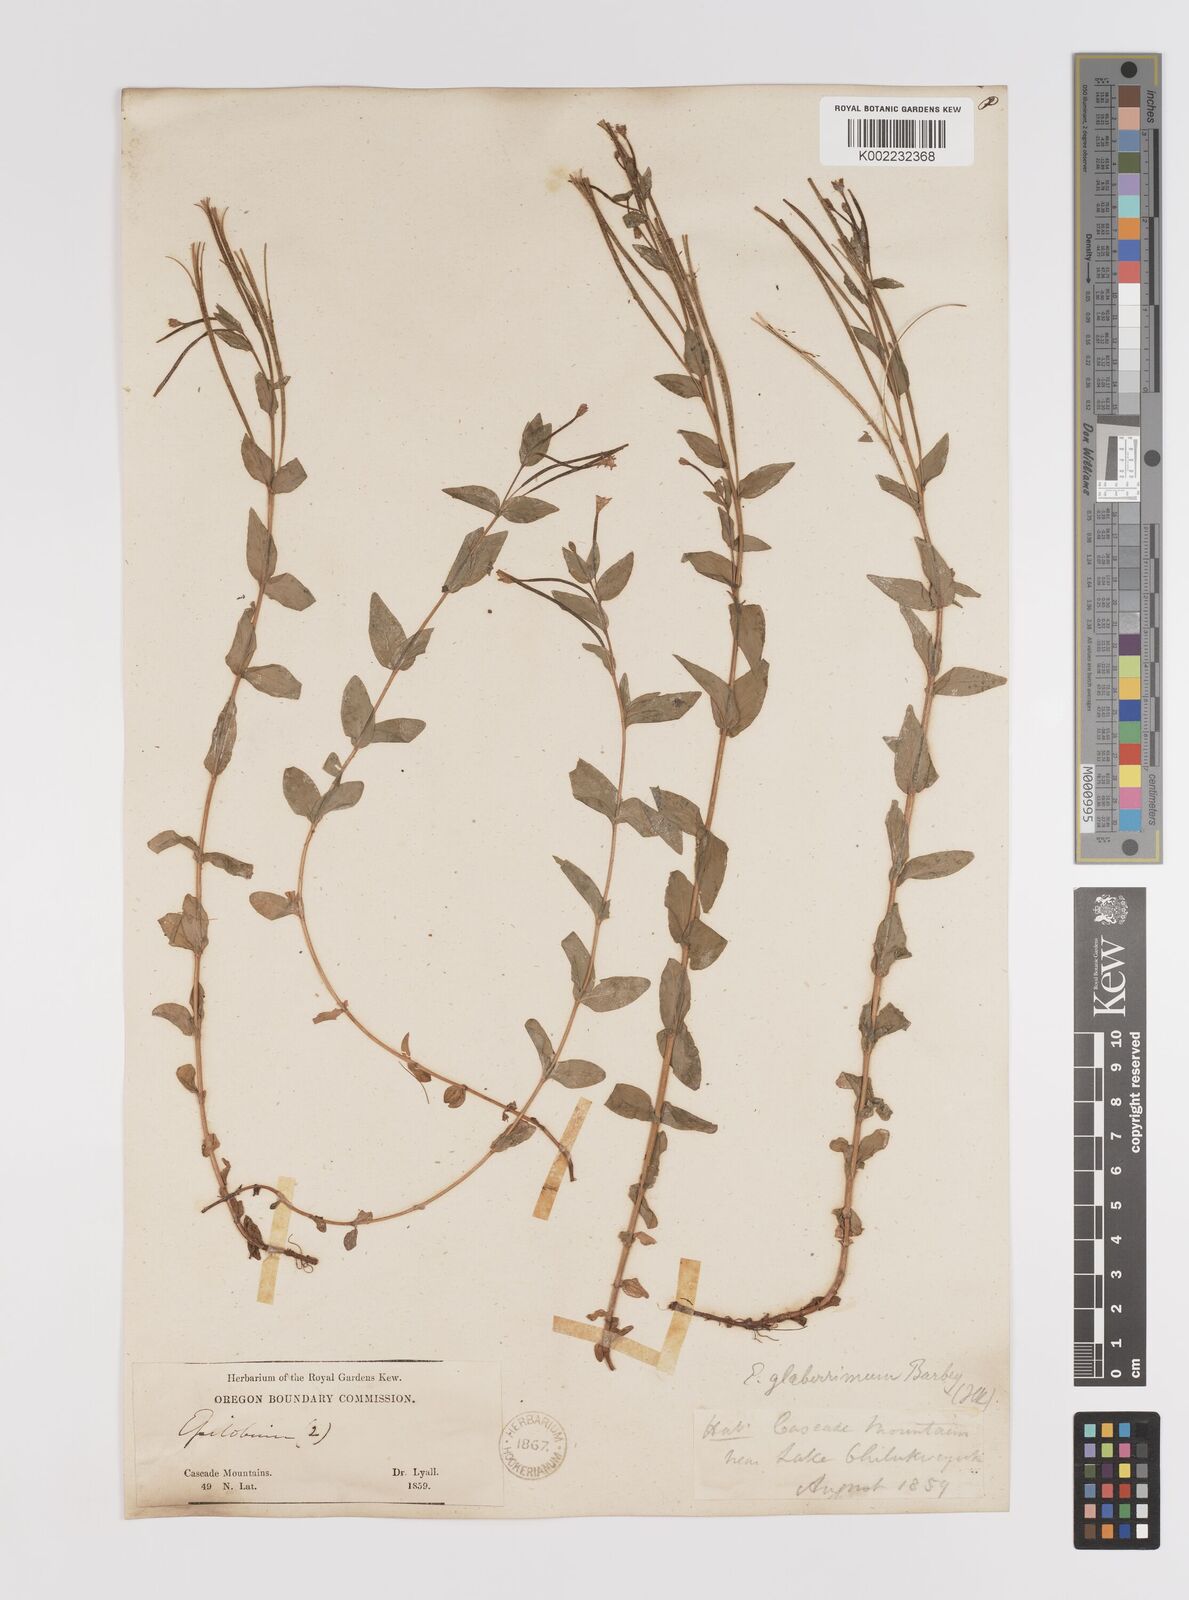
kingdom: Plantae
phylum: Tracheophyta
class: Magnoliopsida
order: Myrtales
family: Onagraceae
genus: Epilobium
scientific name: Epilobium glaberrimum
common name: Glaucous willowherb
